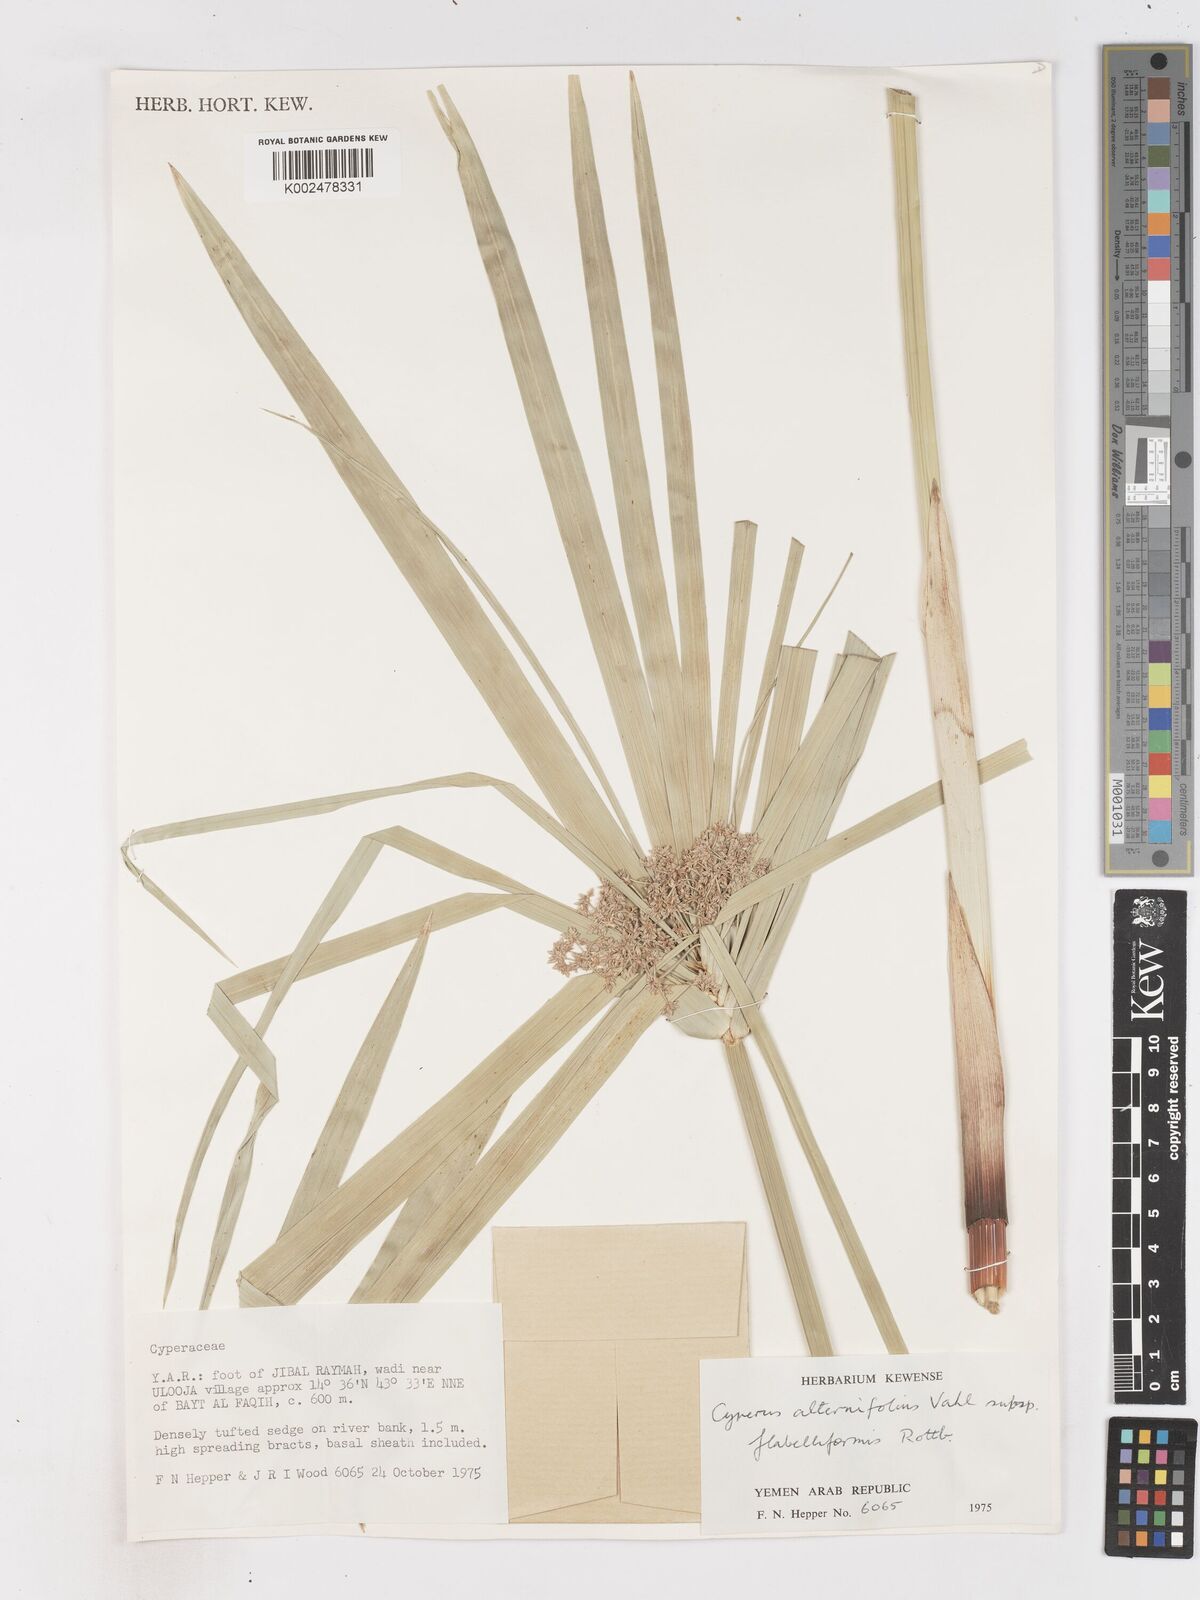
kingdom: Plantae
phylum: Tracheophyta
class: Liliopsida
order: Poales
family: Cyperaceae
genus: Cyperus
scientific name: Cyperus alternifolius
